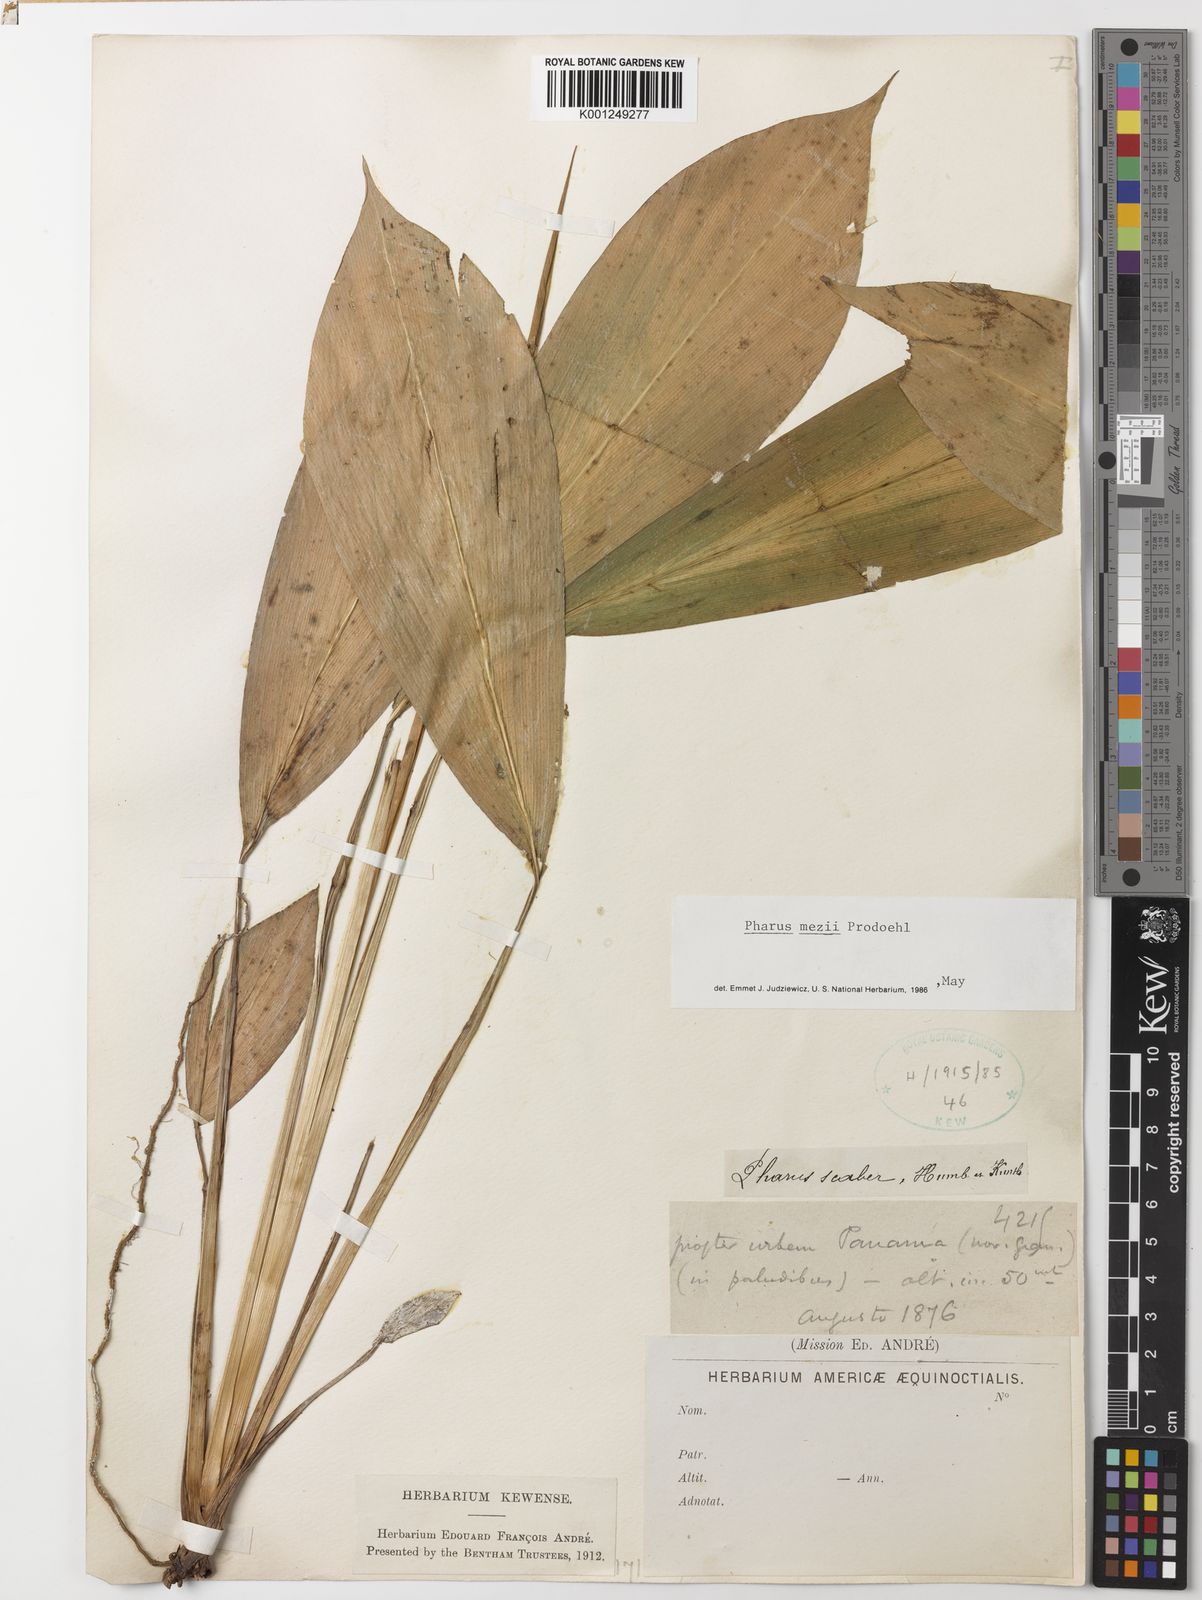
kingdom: Plantae
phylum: Tracheophyta
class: Liliopsida
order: Poales
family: Poaceae
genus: Pharus
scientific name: Pharus mezii
